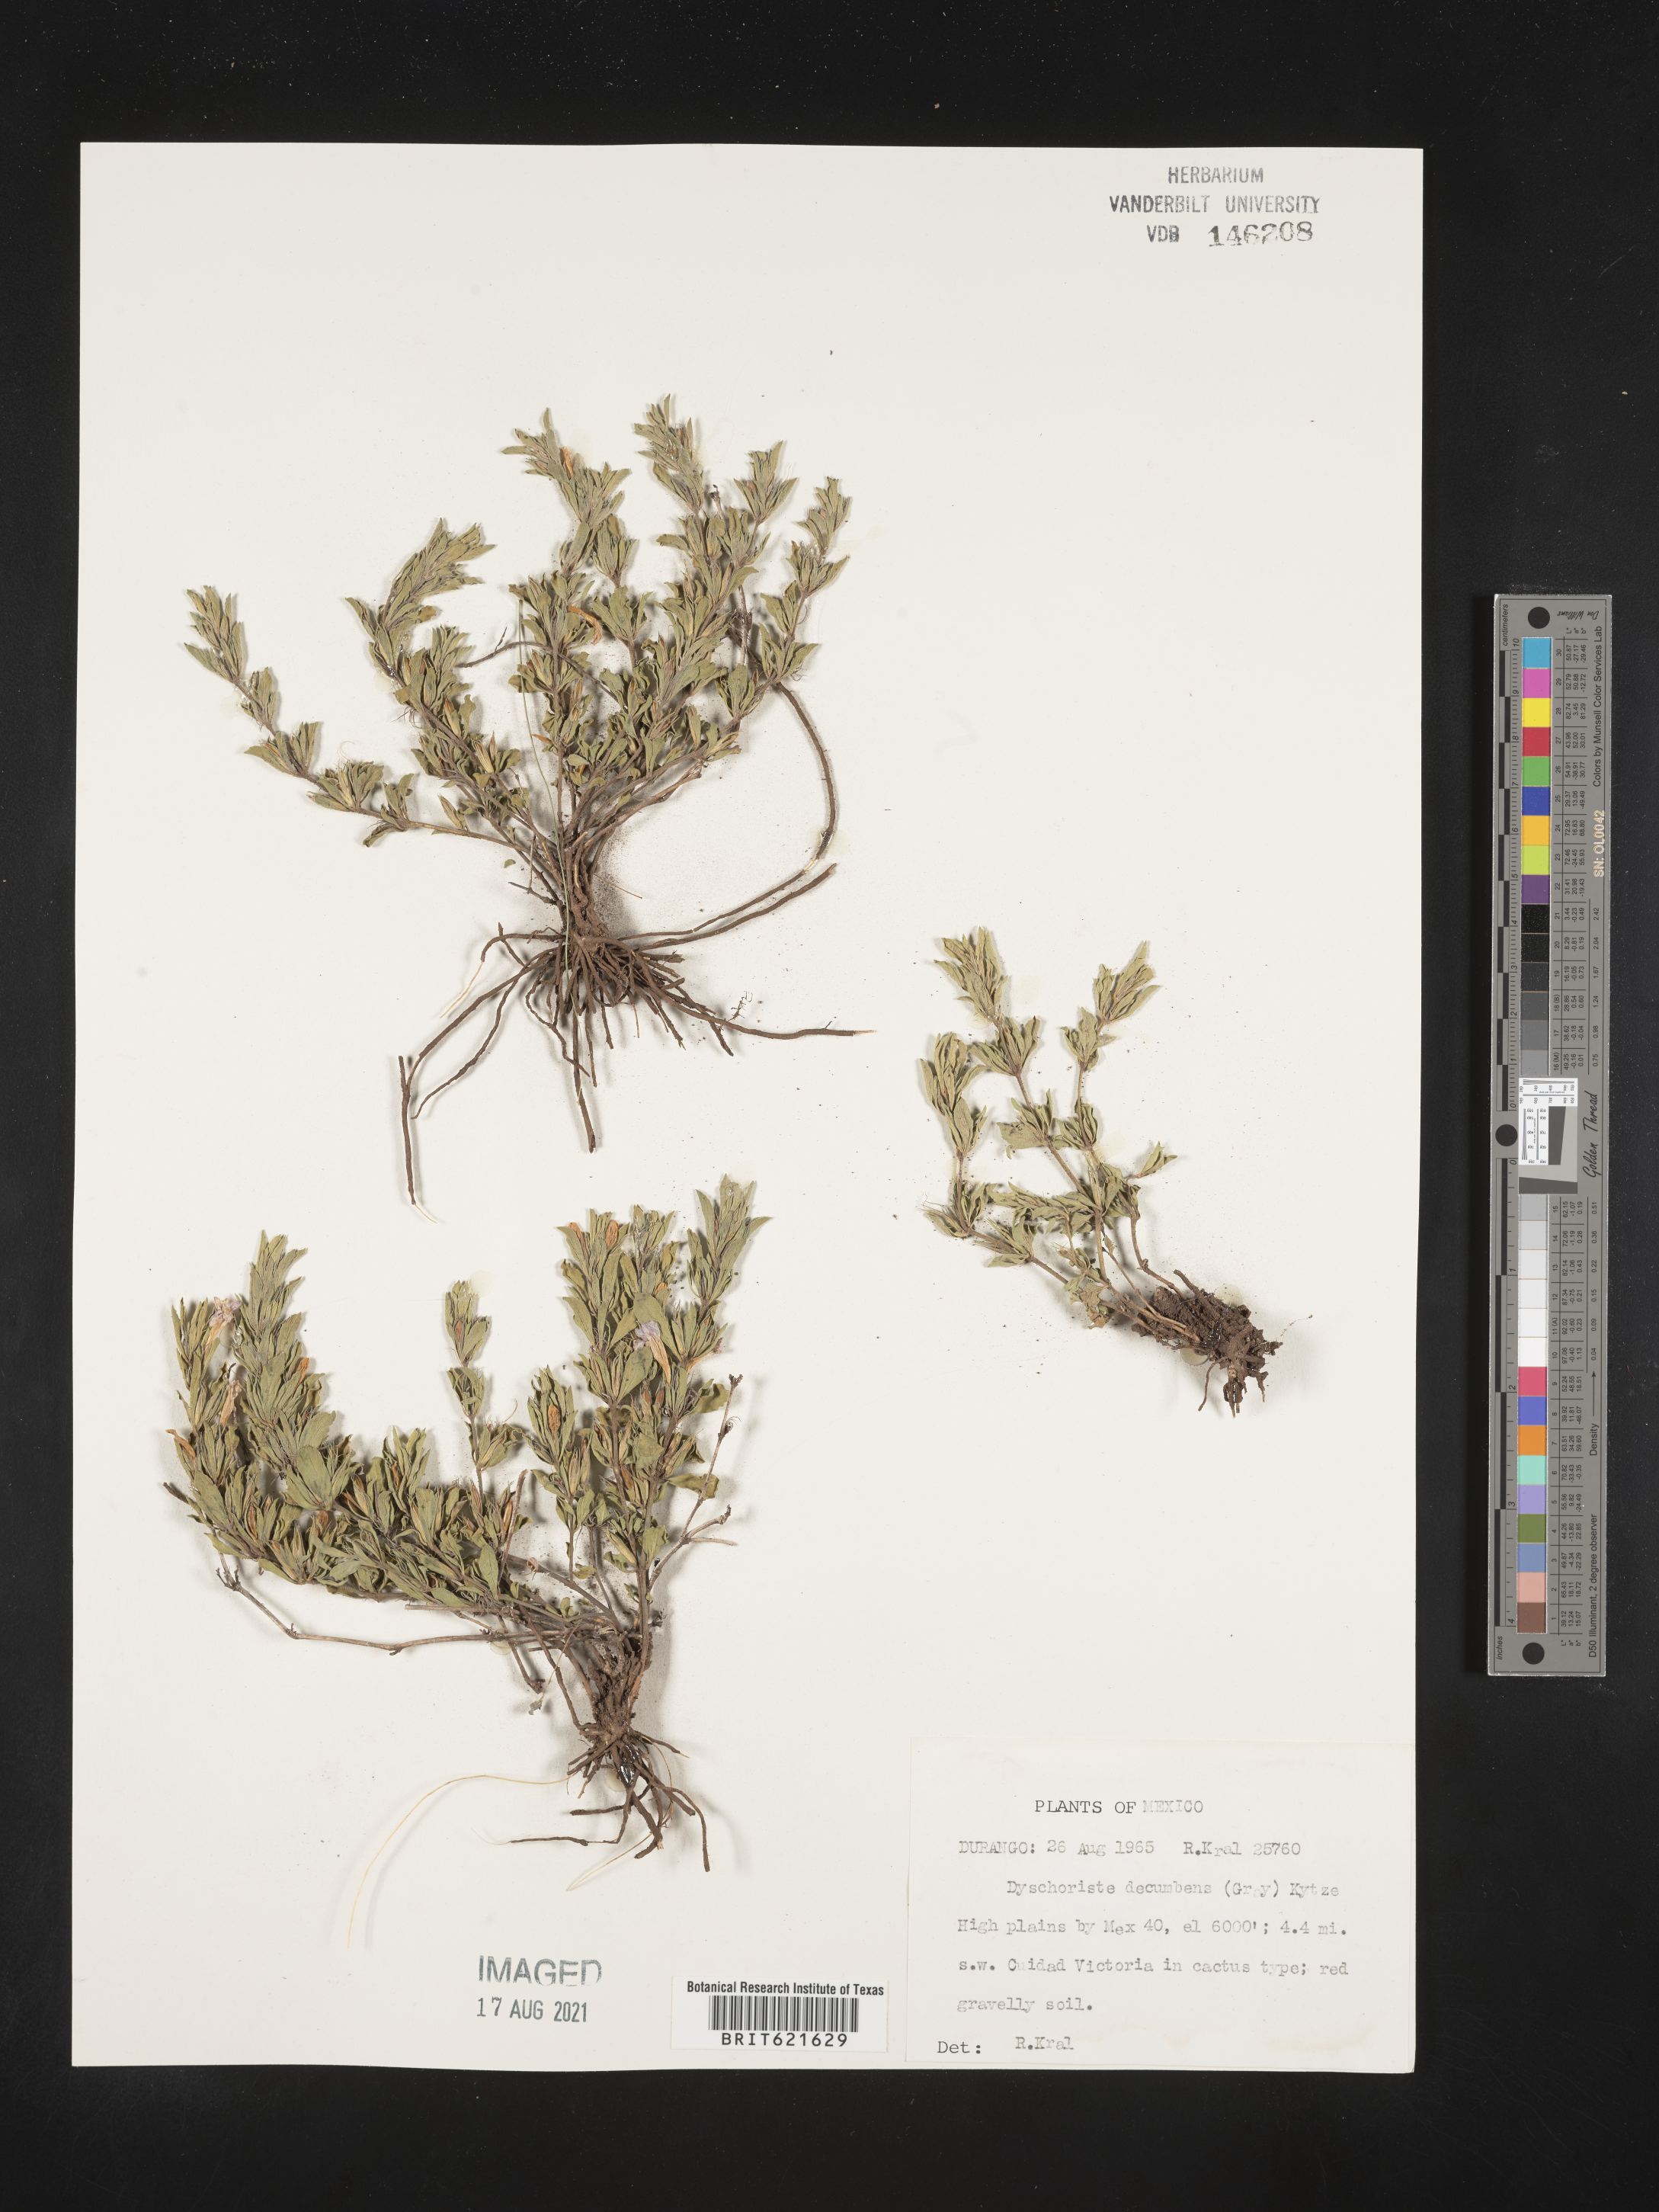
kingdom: Plantae
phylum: Tracheophyta
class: Magnoliopsida
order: Lamiales
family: Acanthaceae
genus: Dyschoriste
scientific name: Dyschoriste
